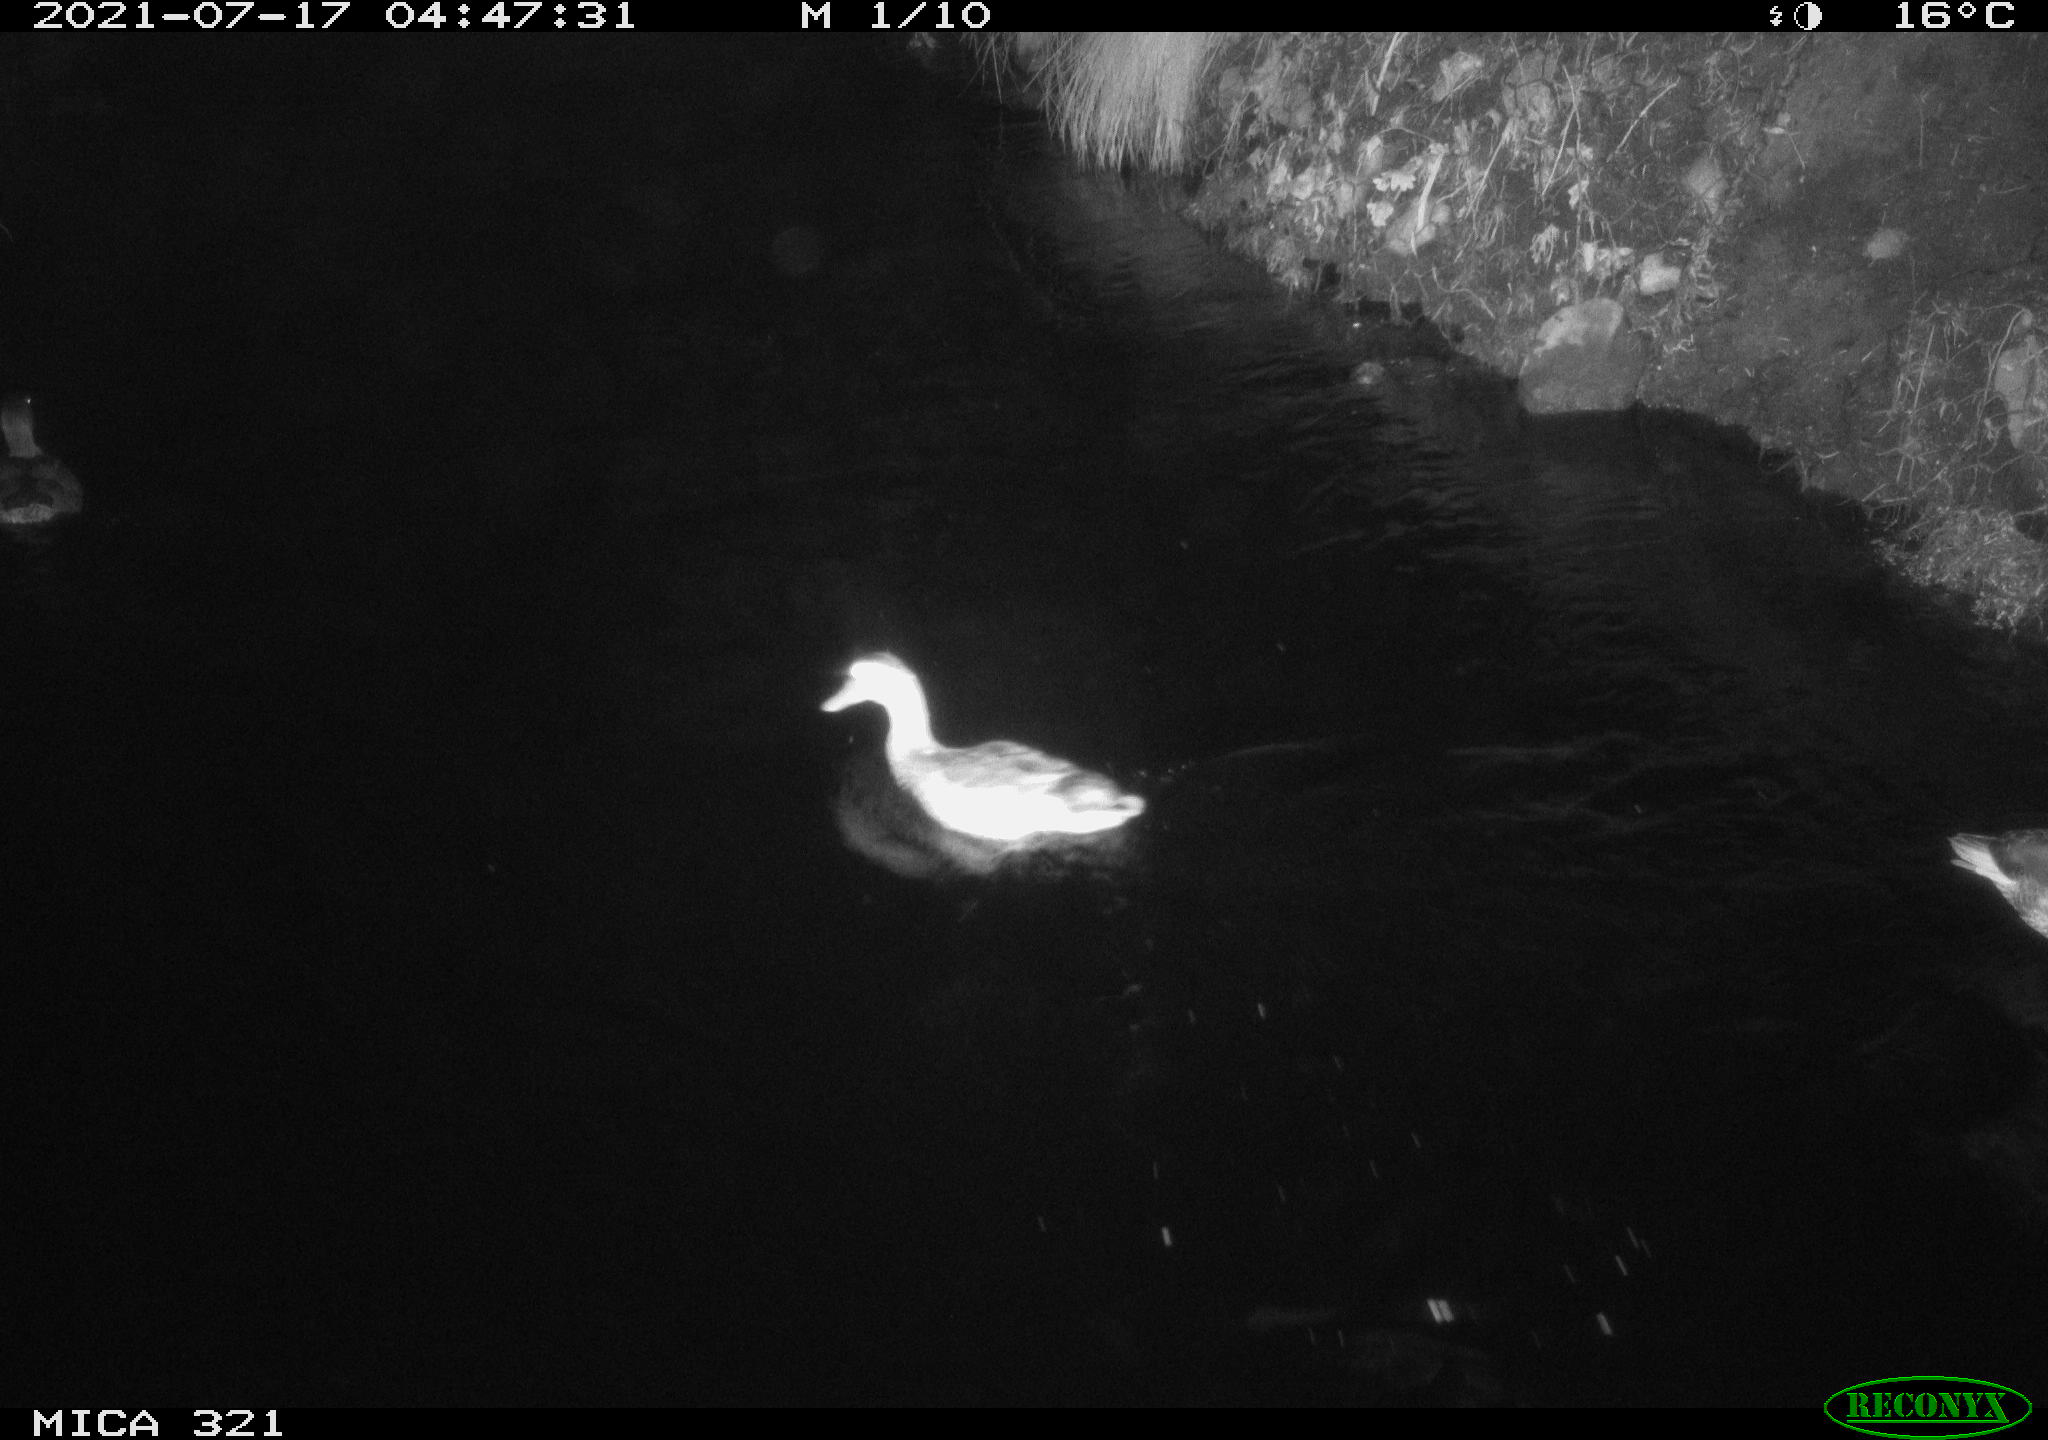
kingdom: Animalia
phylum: Chordata
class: Aves
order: Anseriformes
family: Anatidae
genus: Anas
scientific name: Anas platyrhynchos
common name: Mallard
